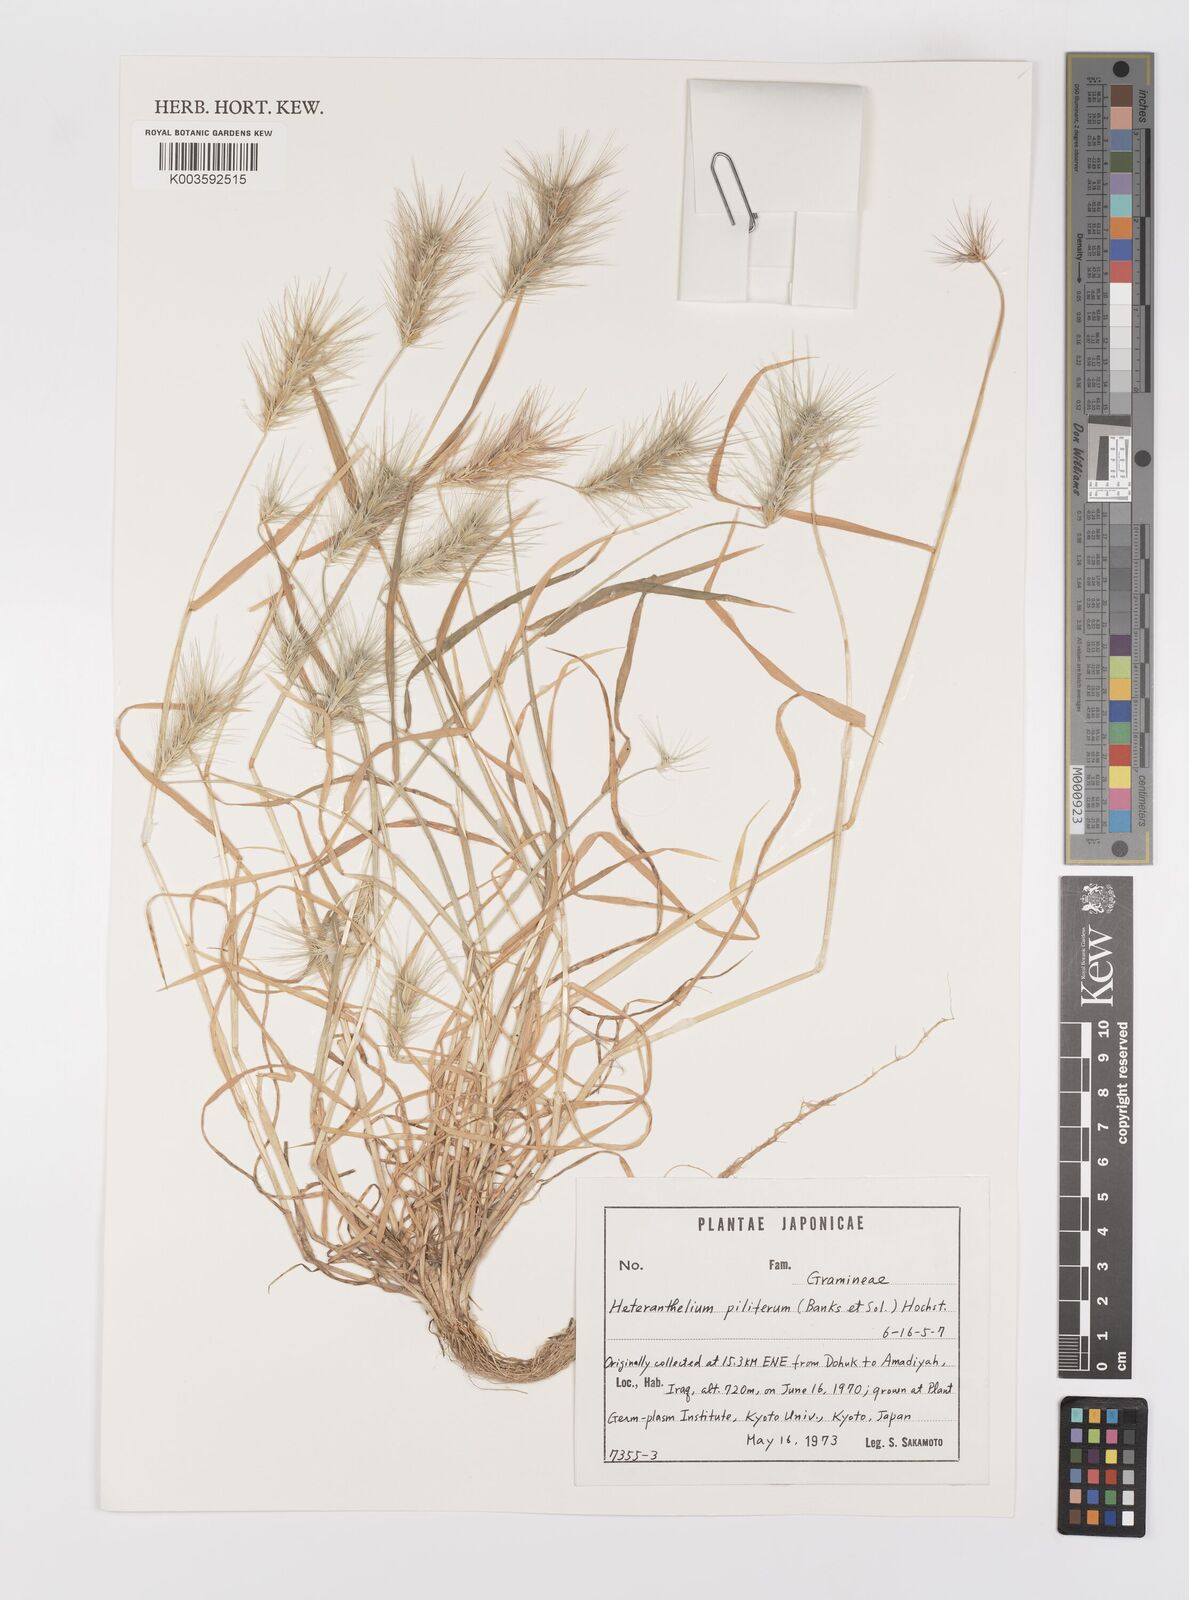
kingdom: Plantae
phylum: Tracheophyta
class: Liliopsida
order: Poales
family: Poaceae
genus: Heteranthelium
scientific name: Heteranthelium piliferum
